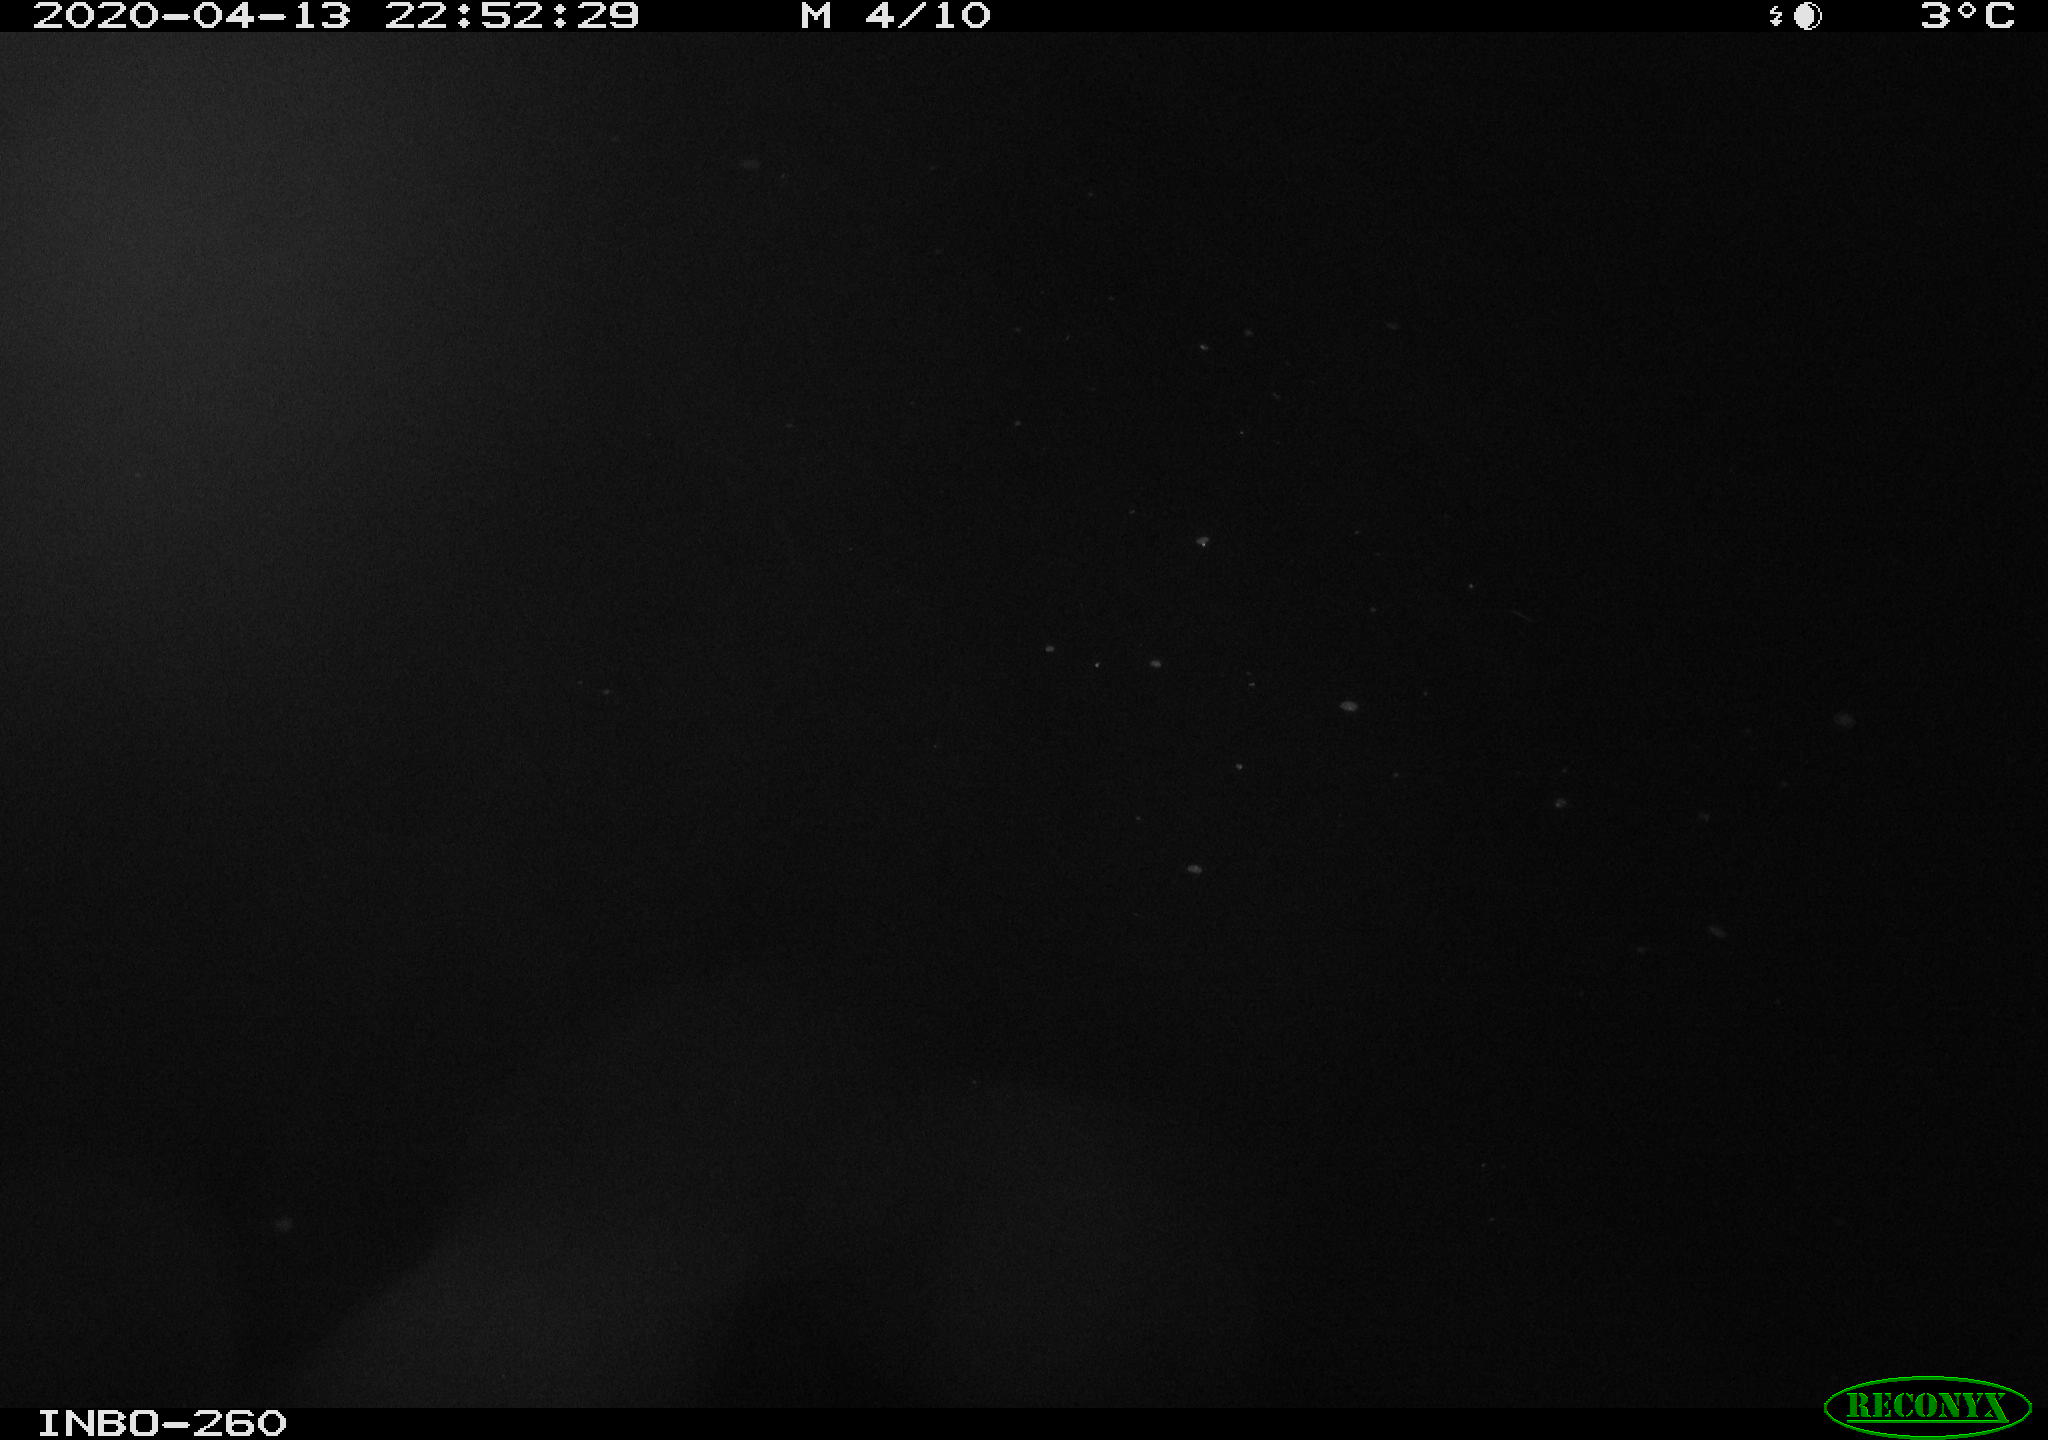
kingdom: Animalia
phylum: Chordata
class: Aves
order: Anseriformes
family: Anatidae
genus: Anas
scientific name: Anas platyrhynchos
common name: Mallard
